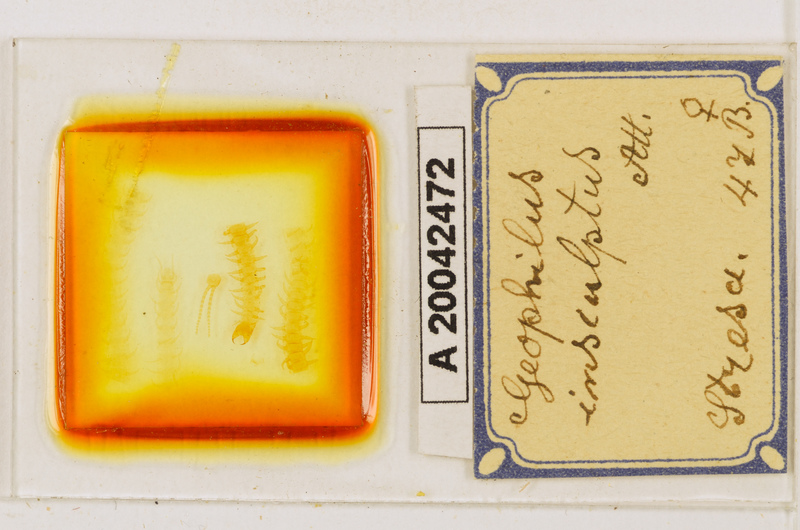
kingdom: Animalia
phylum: Arthropoda
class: Chilopoda
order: Geophilomorpha
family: Geophilidae
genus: Geophilus
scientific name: Geophilus insculptus
